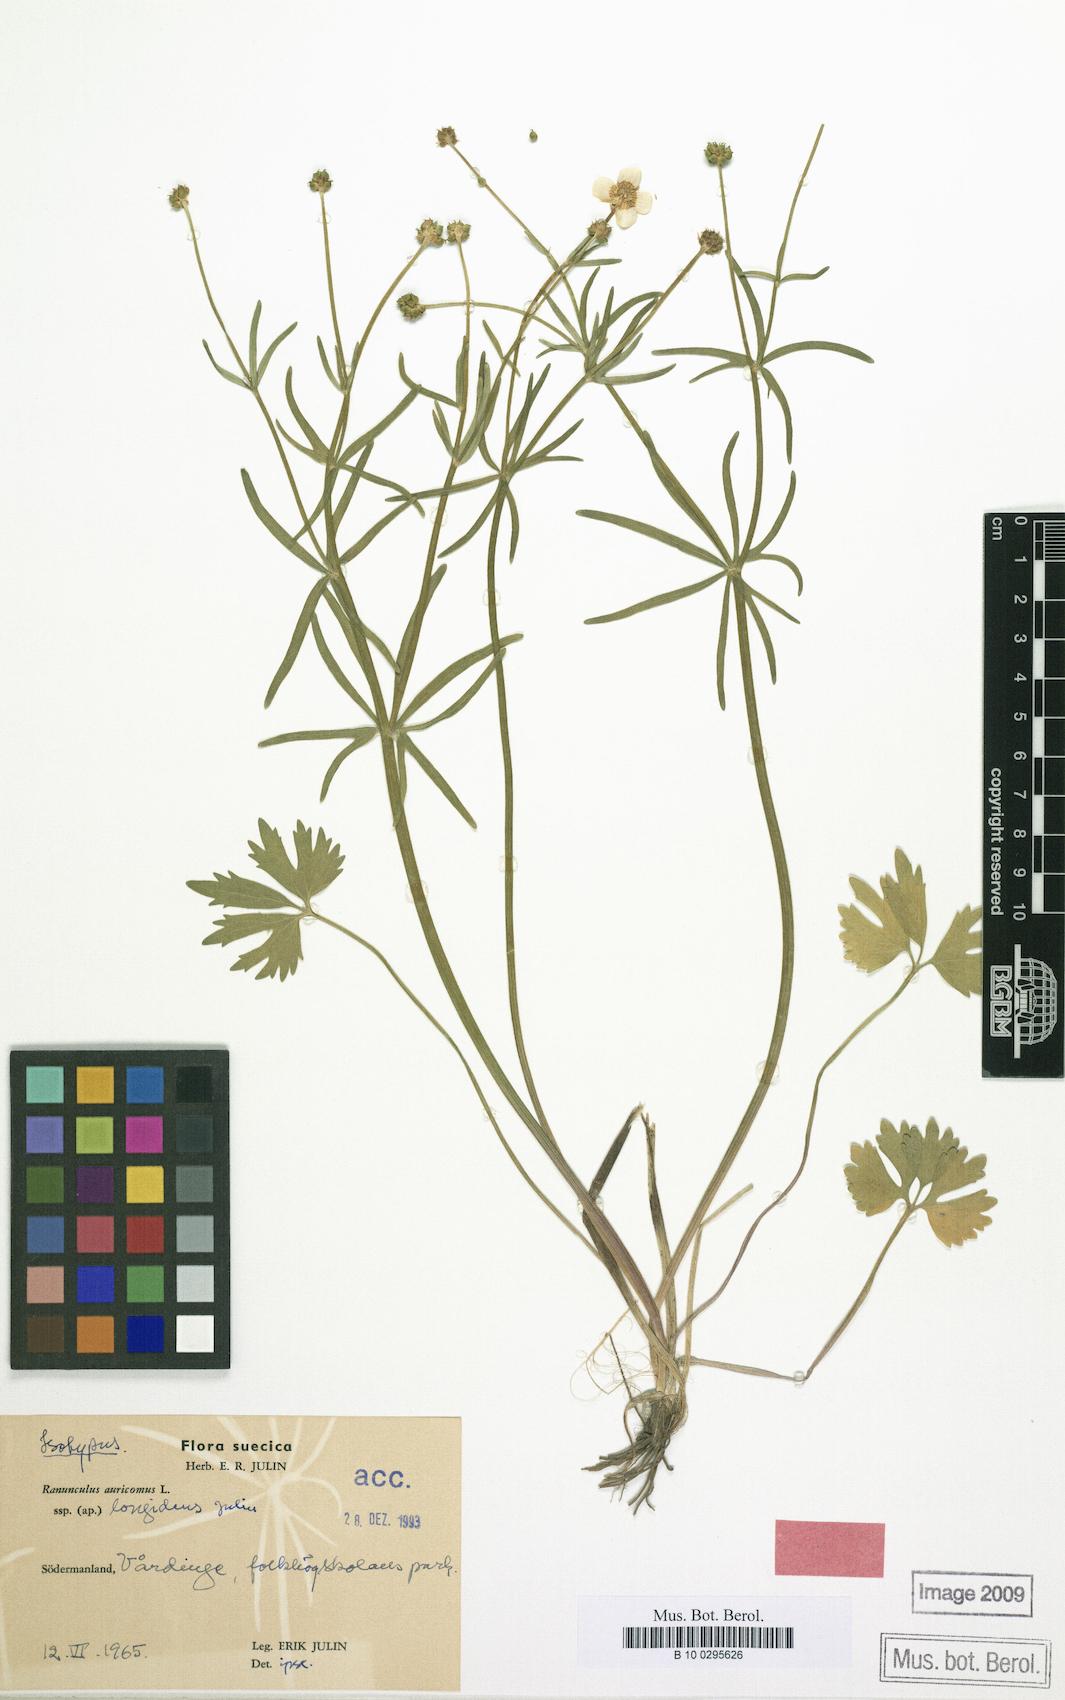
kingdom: Plantae
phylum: Tracheophyta
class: Magnoliopsida
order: Ranunculales
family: Ranunculaceae
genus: Ranunculus
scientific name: Ranunculus longidens
